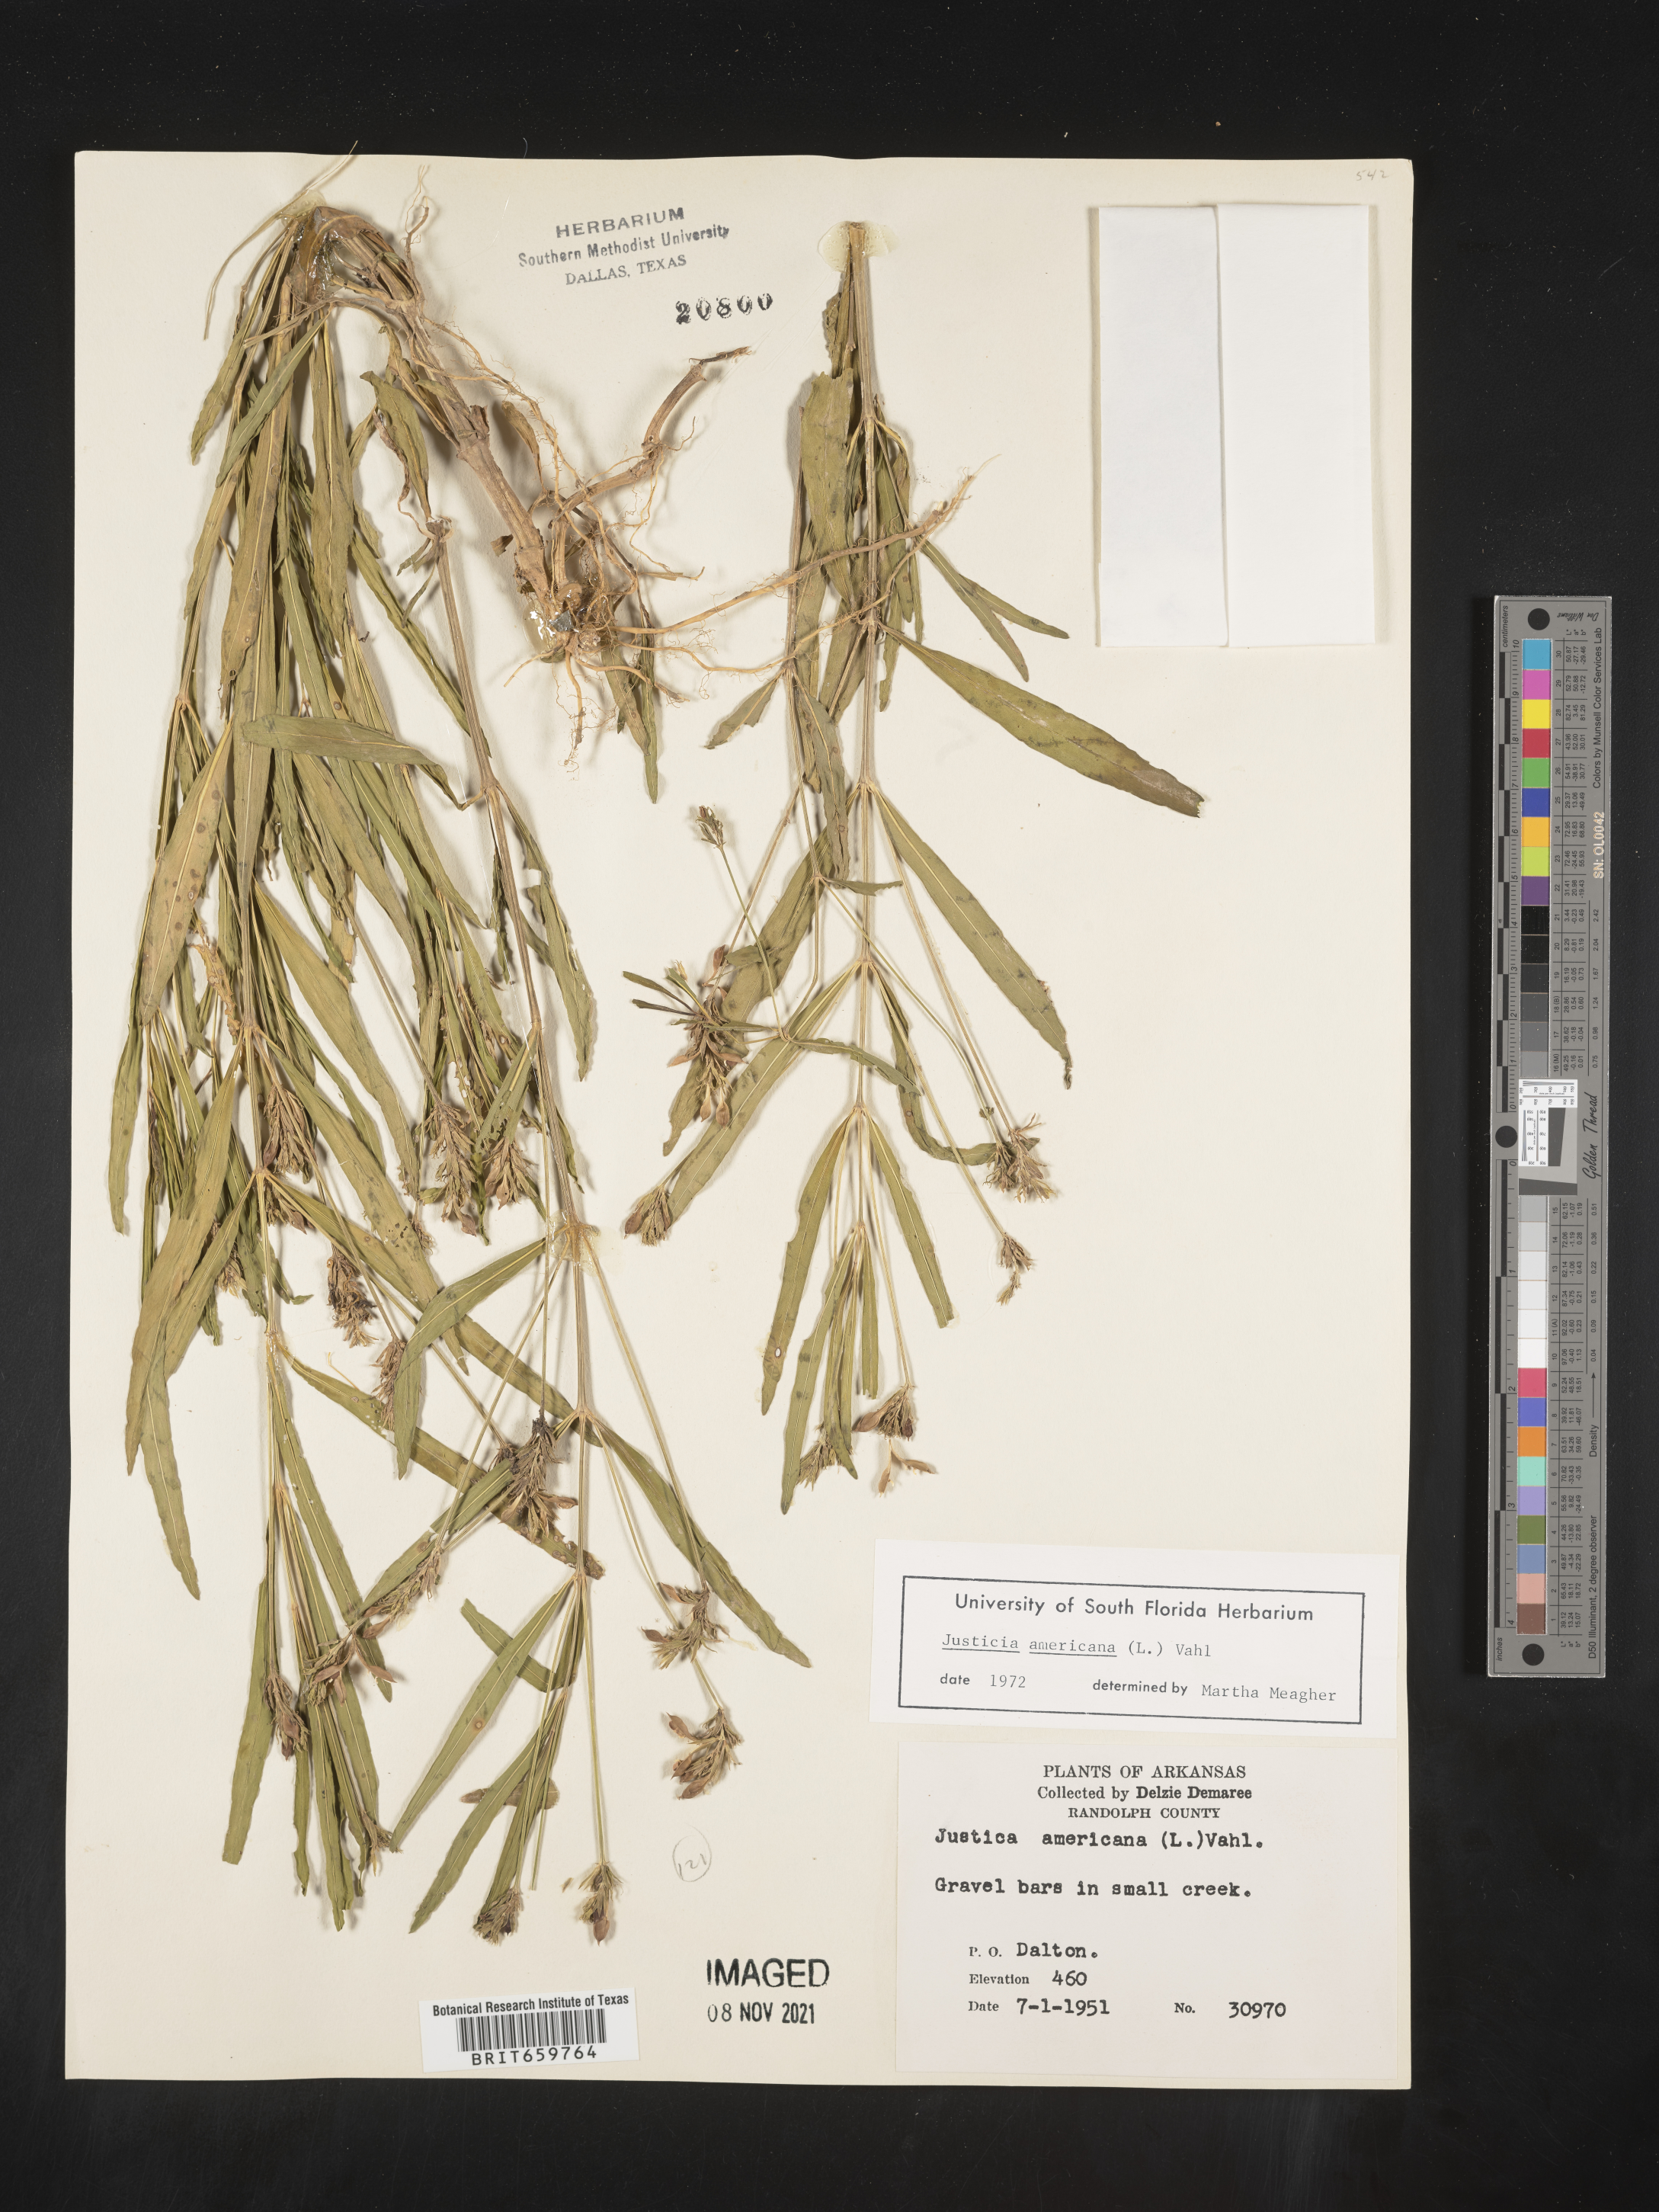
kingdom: Plantae
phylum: Tracheophyta
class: Magnoliopsida
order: Lamiales
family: Acanthaceae
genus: Dianthera
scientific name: Dianthera americana
